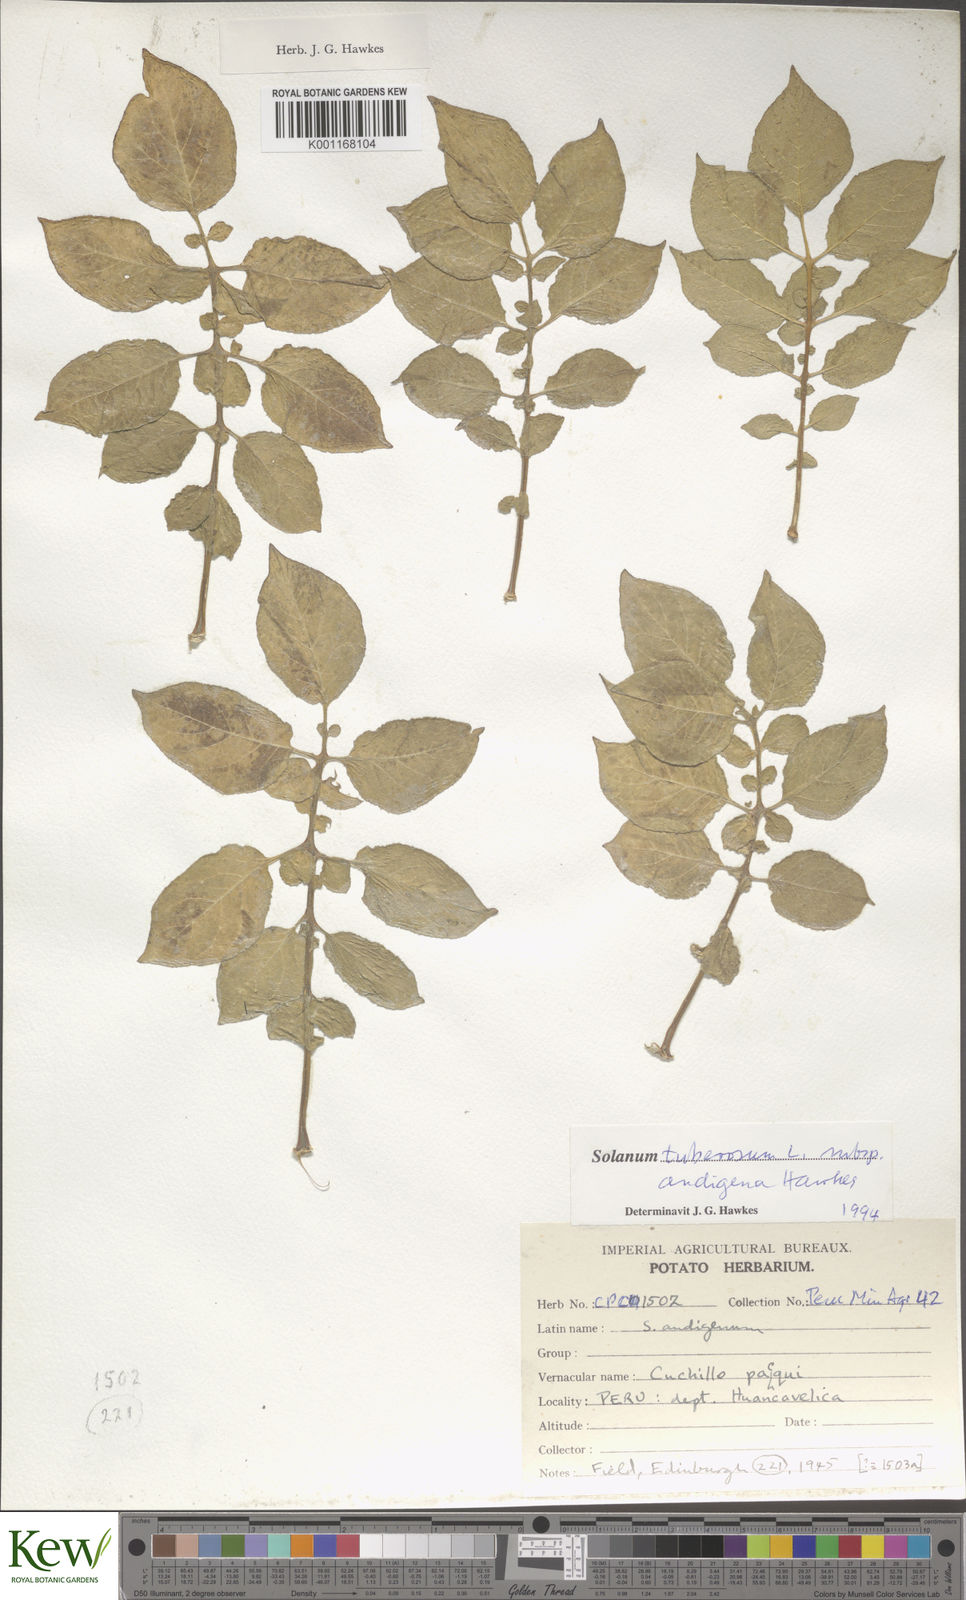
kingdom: Plantae
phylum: Tracheophyta
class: Magnoliopsida
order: Solanales
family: Solanaceae
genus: Solanum
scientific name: Solanum tuberosum
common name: Potato
